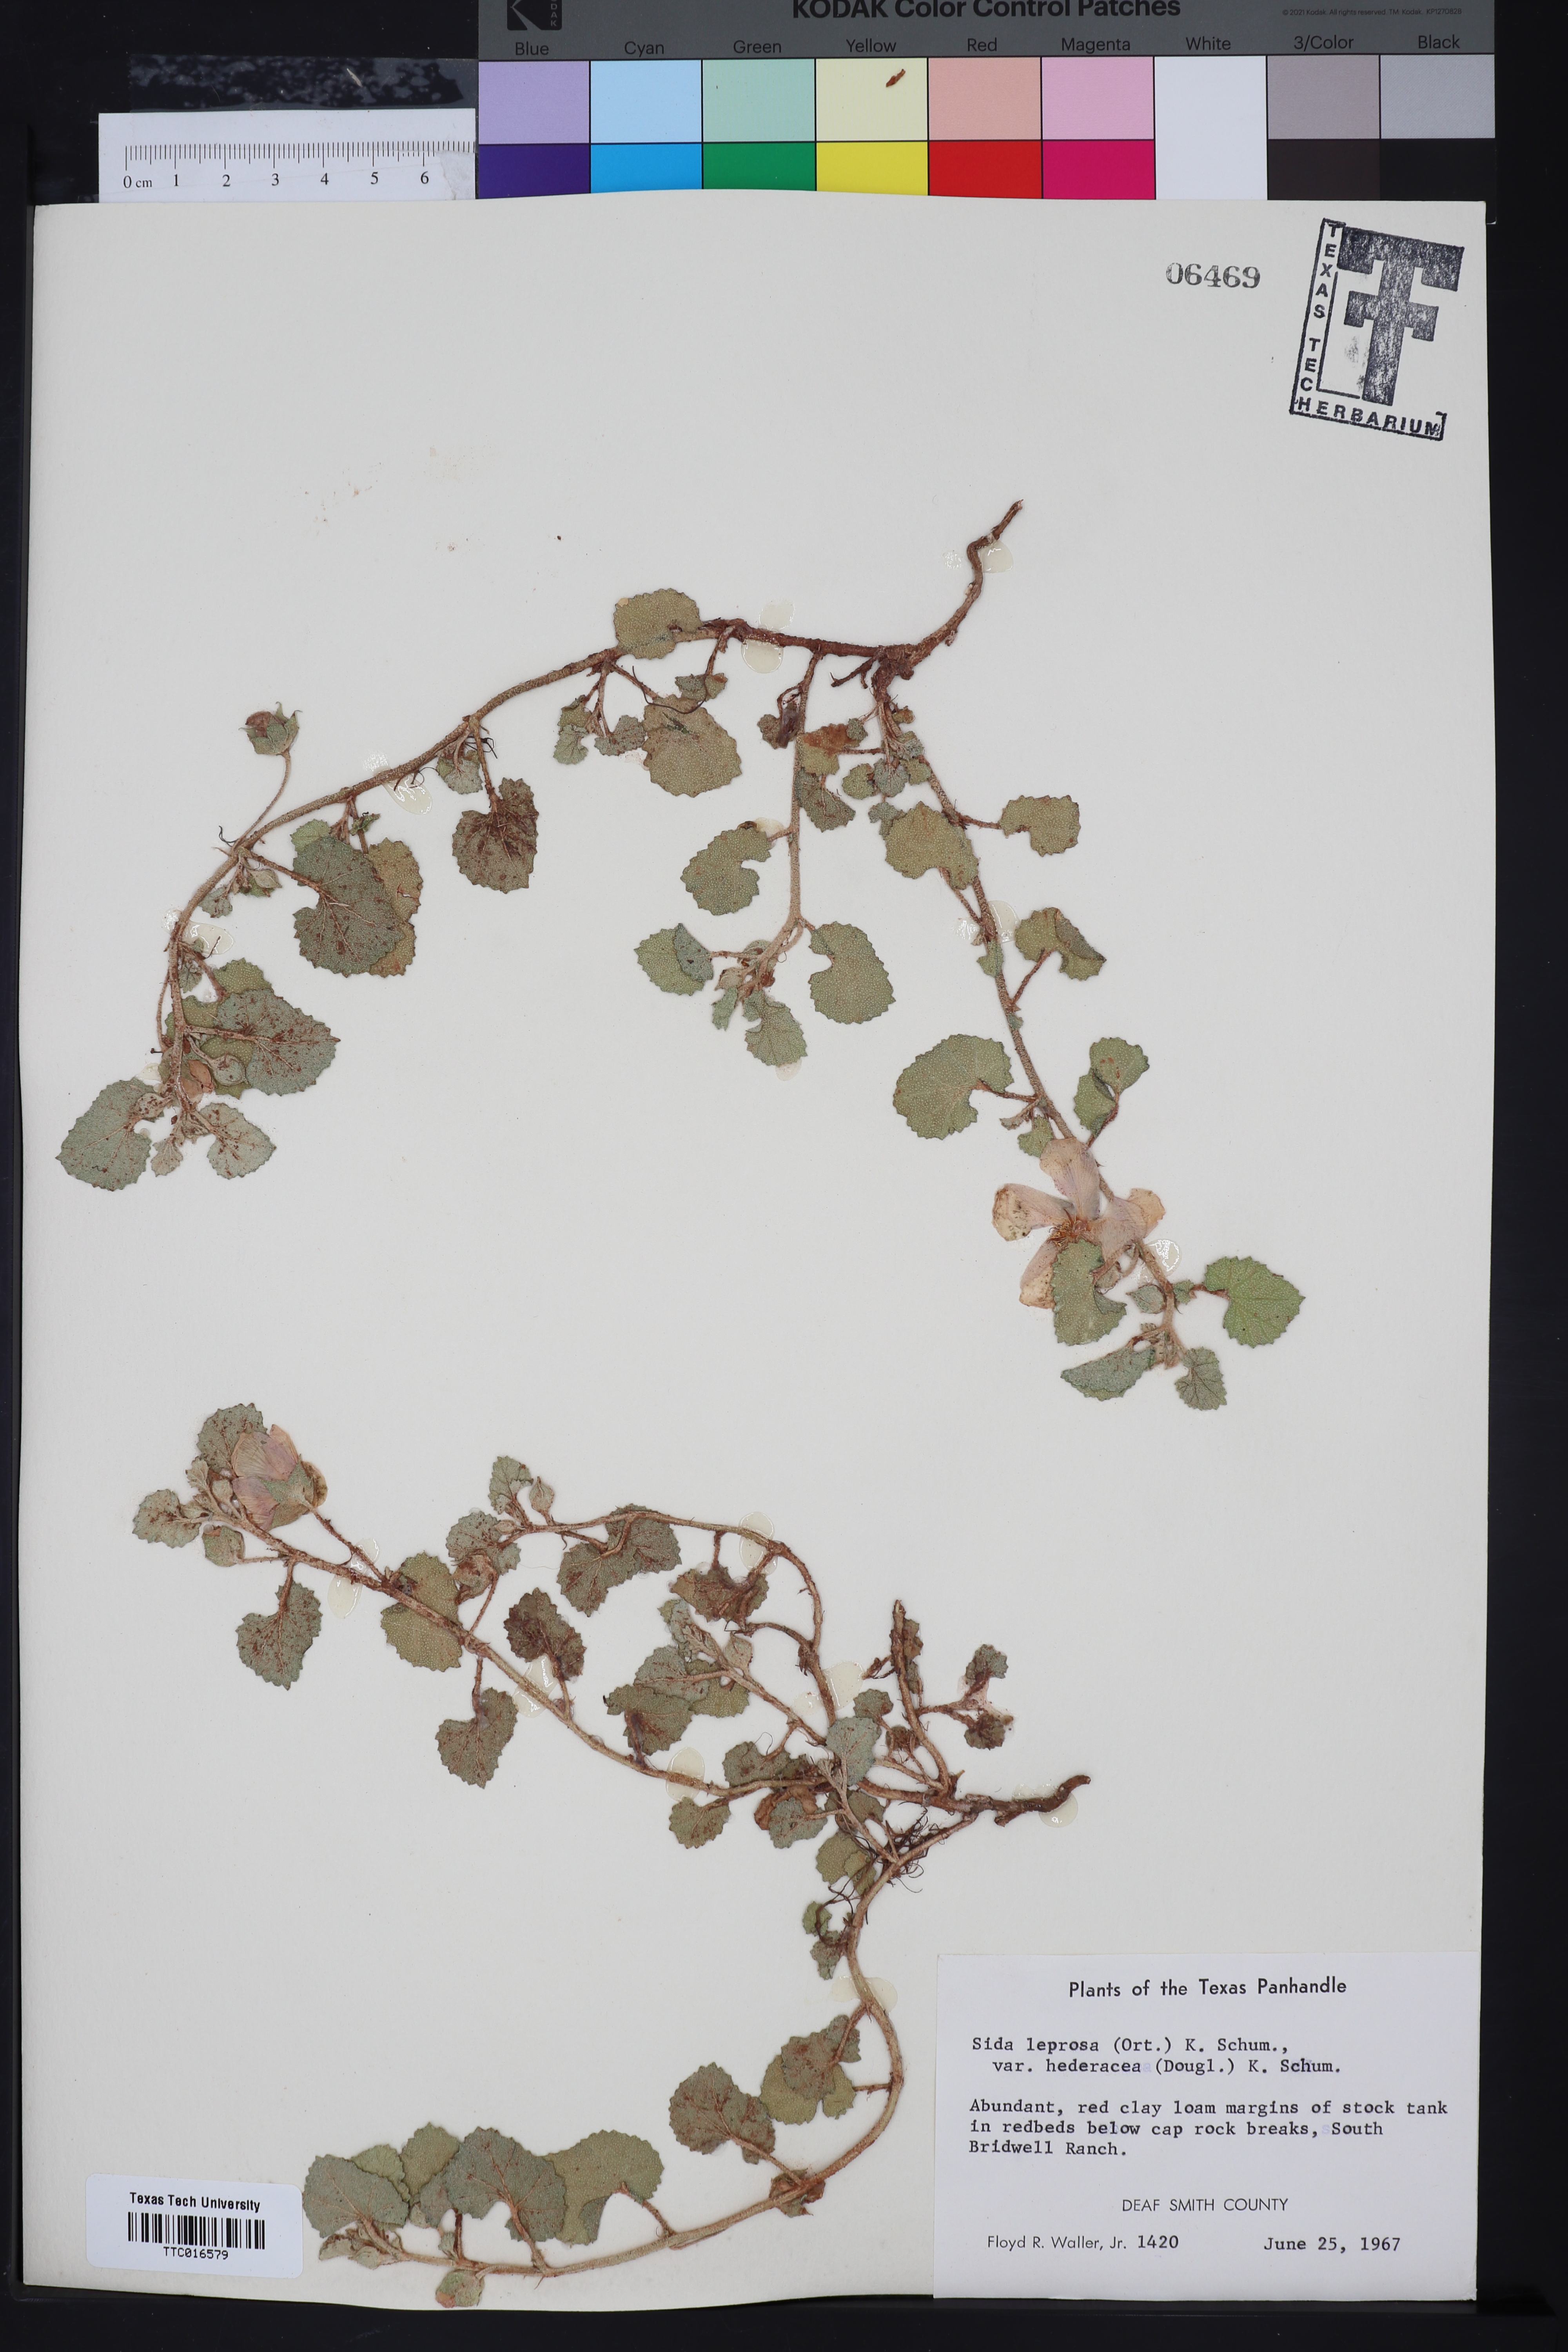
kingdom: Plantae
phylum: Tracheophyta
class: Magnoliopsida
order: Malvales
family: Malvaceae
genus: Malvella
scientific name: Malvella leprosa
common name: Alkali-mallow
